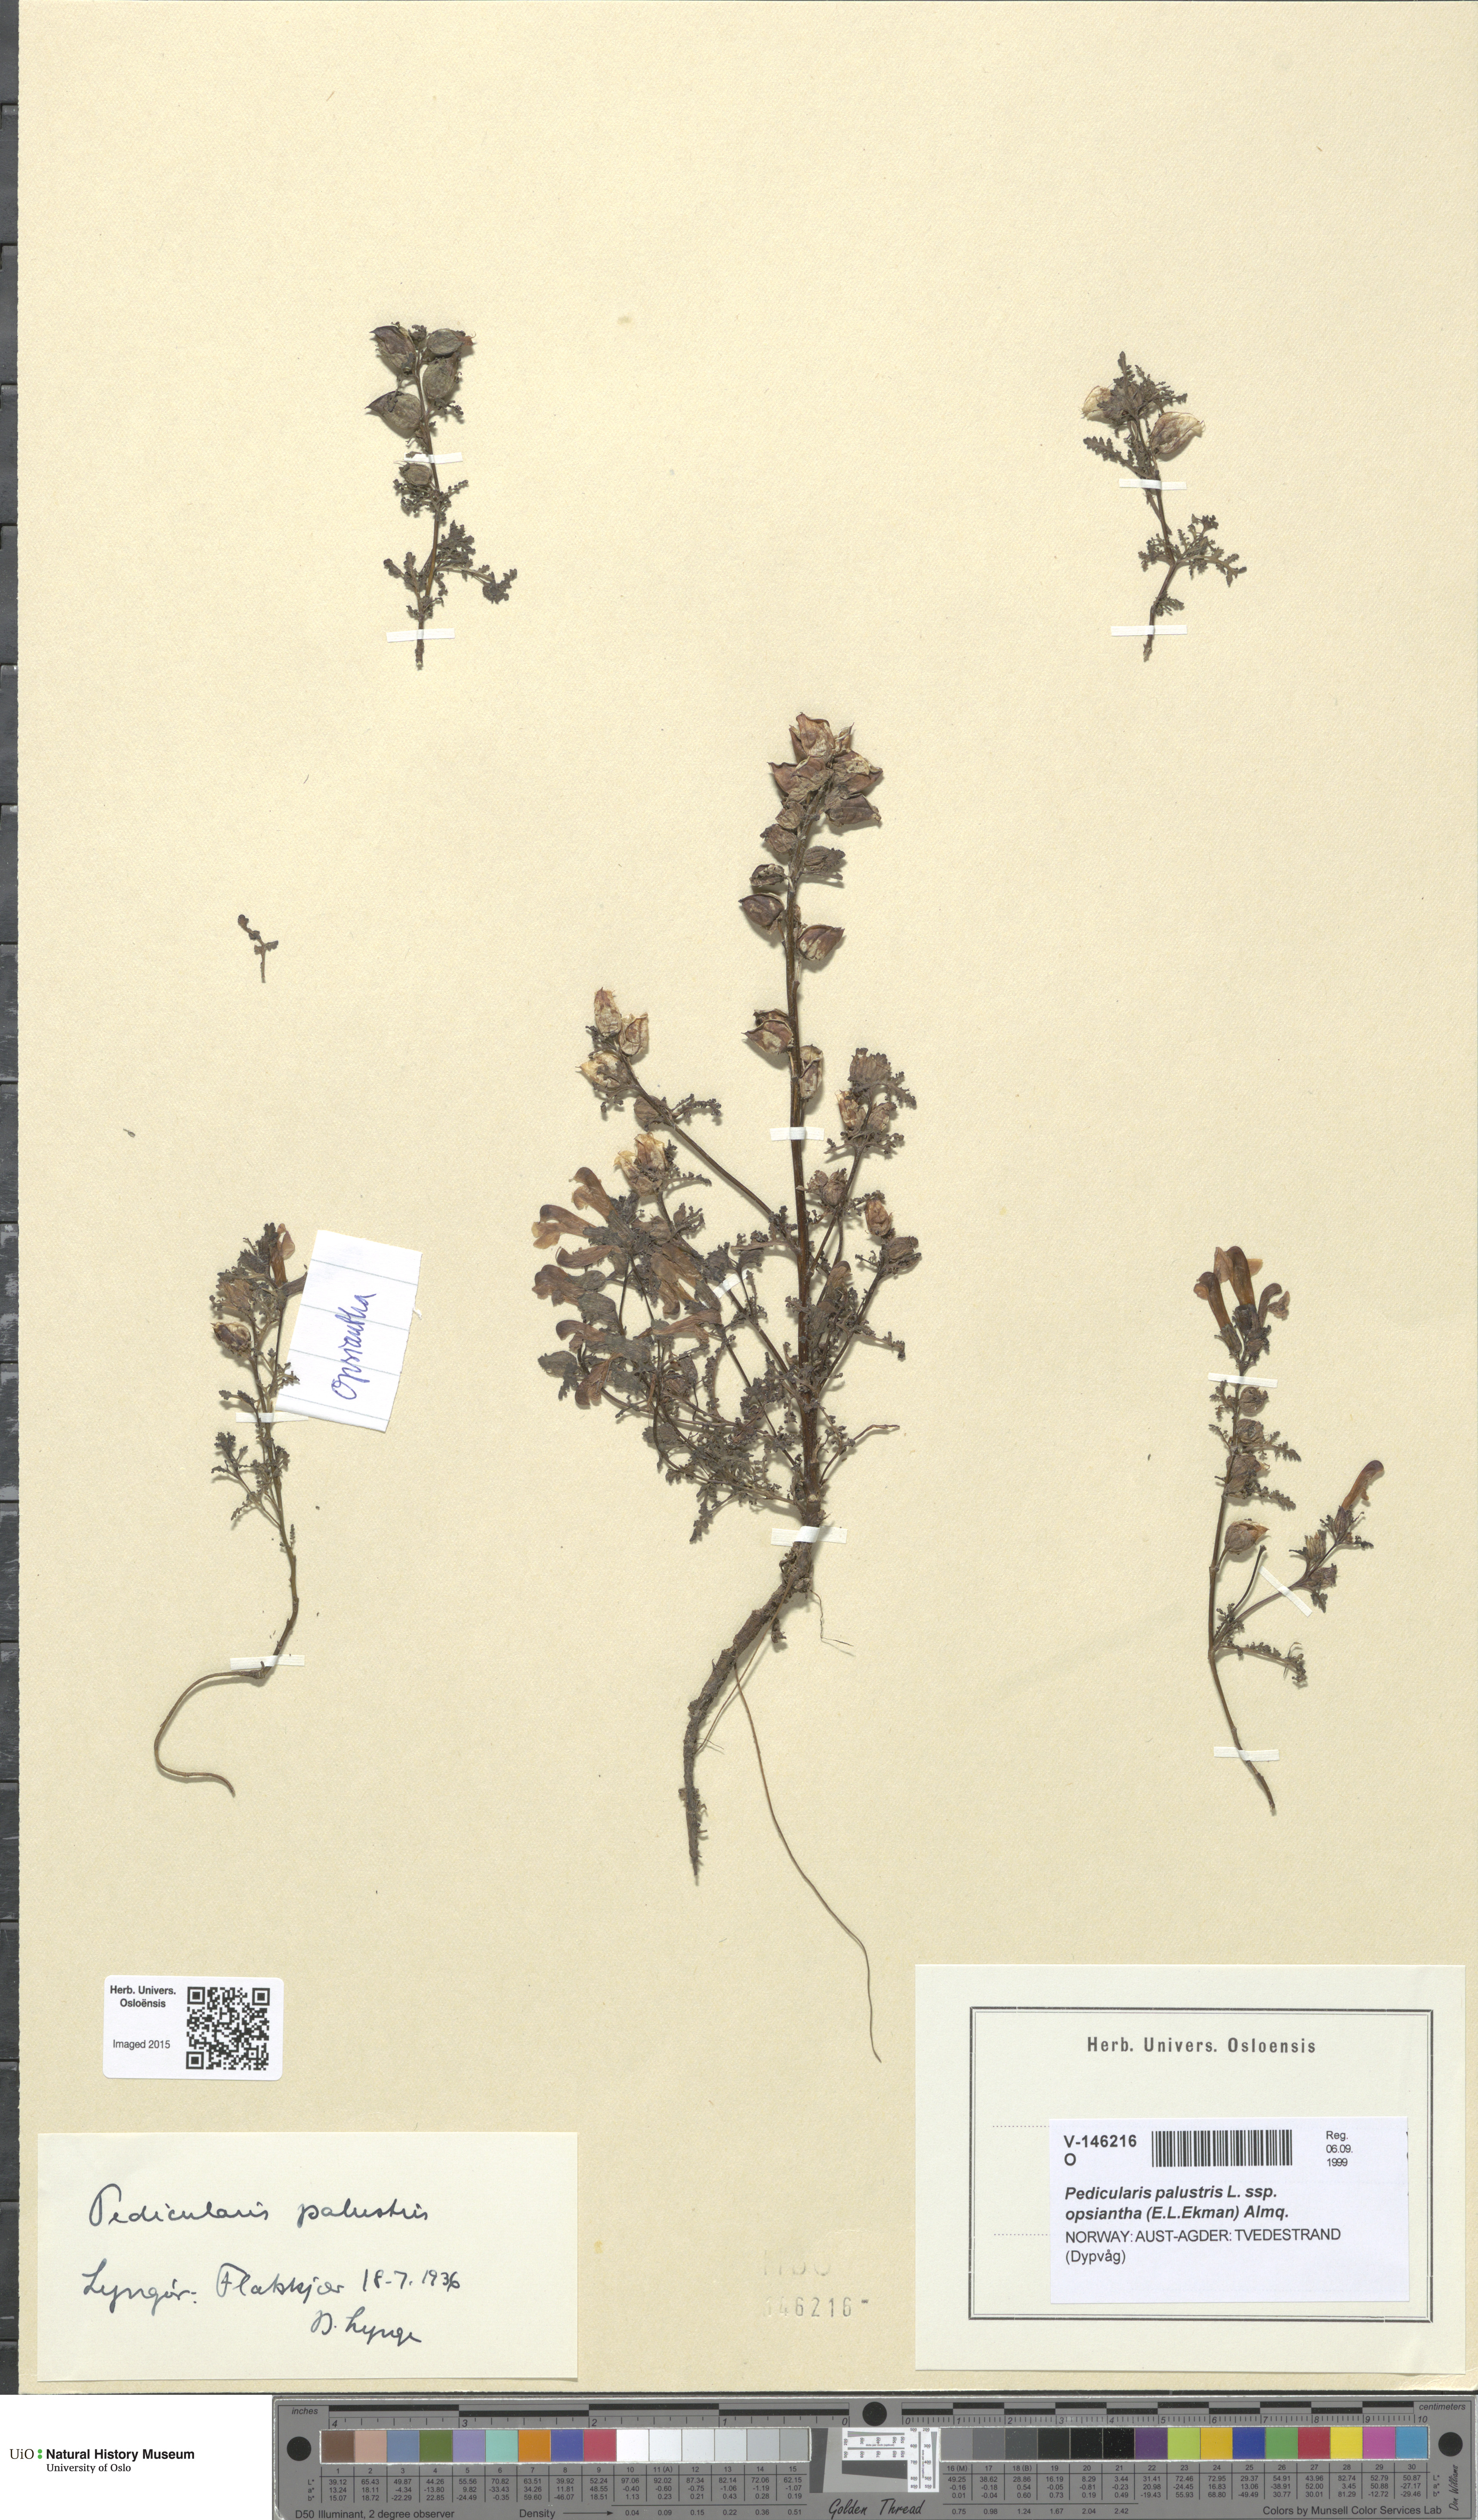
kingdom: Plantae
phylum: Tracheophyta
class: Magnoliopsida
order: Lamiales
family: Orobanchaceae
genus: Pedicularis
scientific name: Pedicularis karoi
